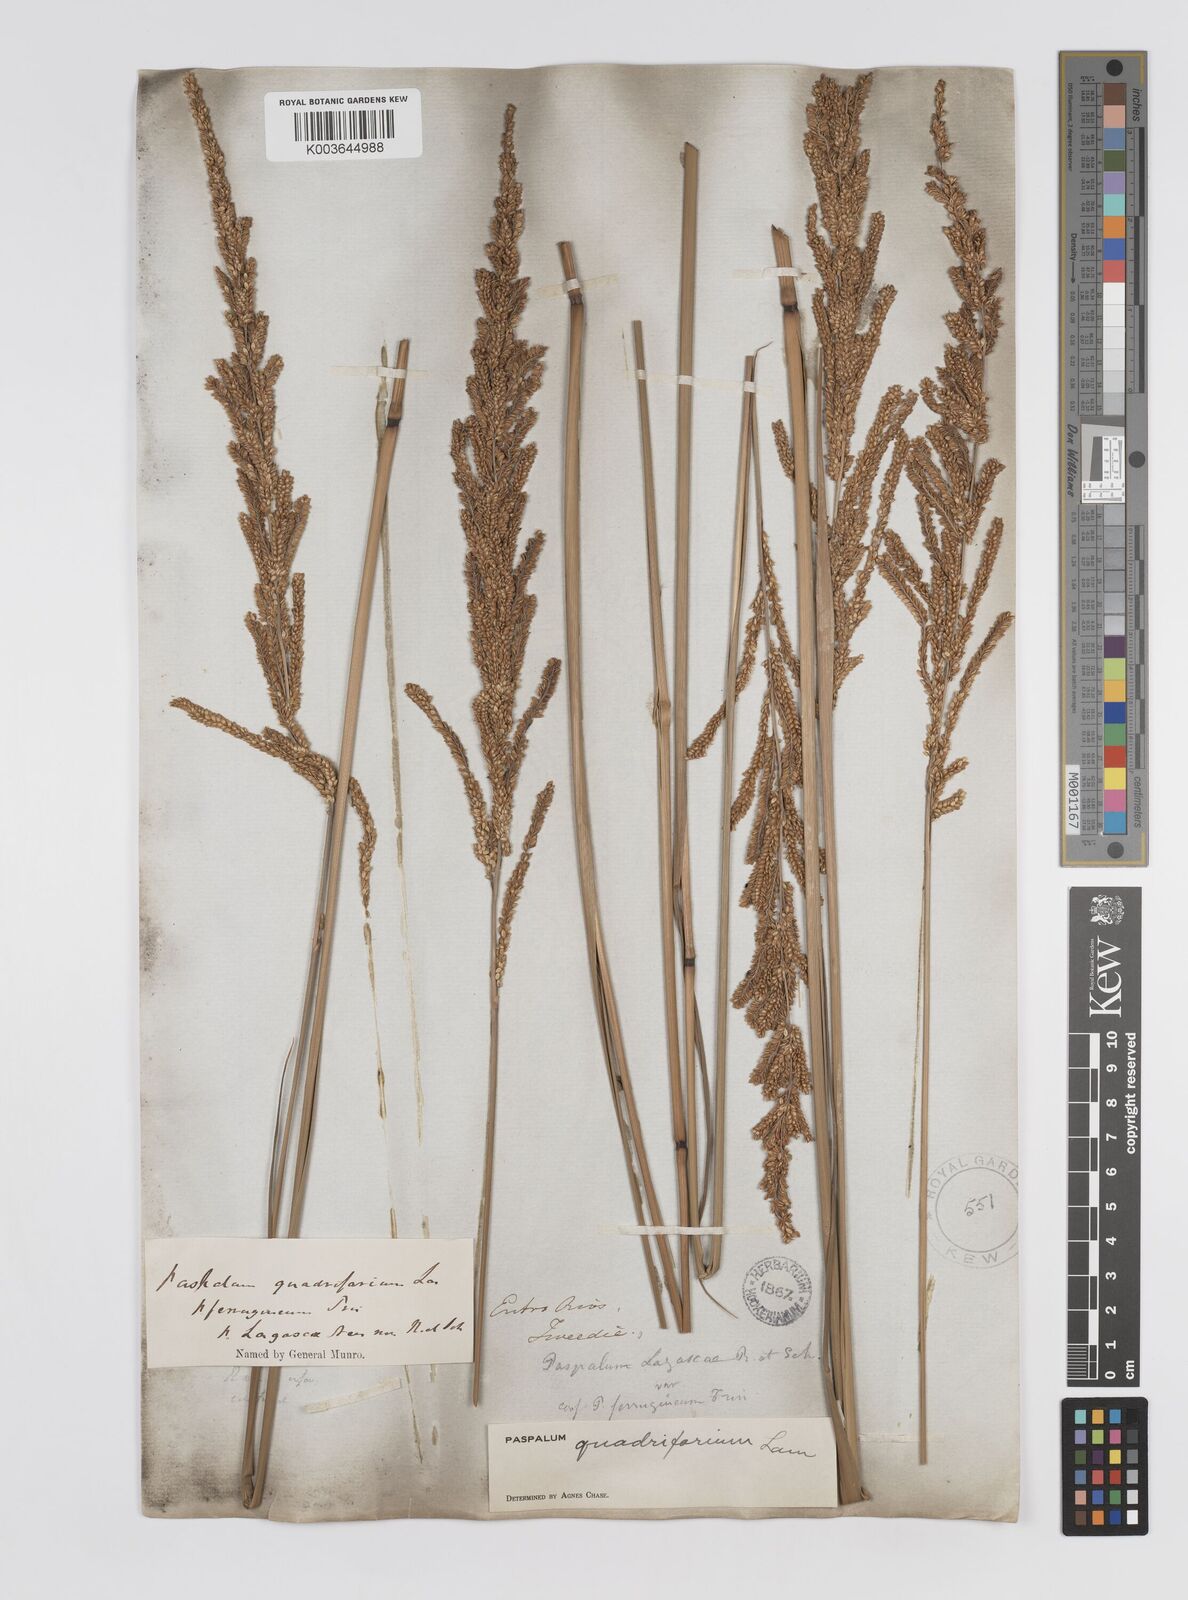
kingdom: Plantae
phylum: Tracheophyta
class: Liliopsida
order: Poales
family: Poaceae
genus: Paspalum
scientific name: Paspalum quadrifarium
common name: Tussock paspalum
